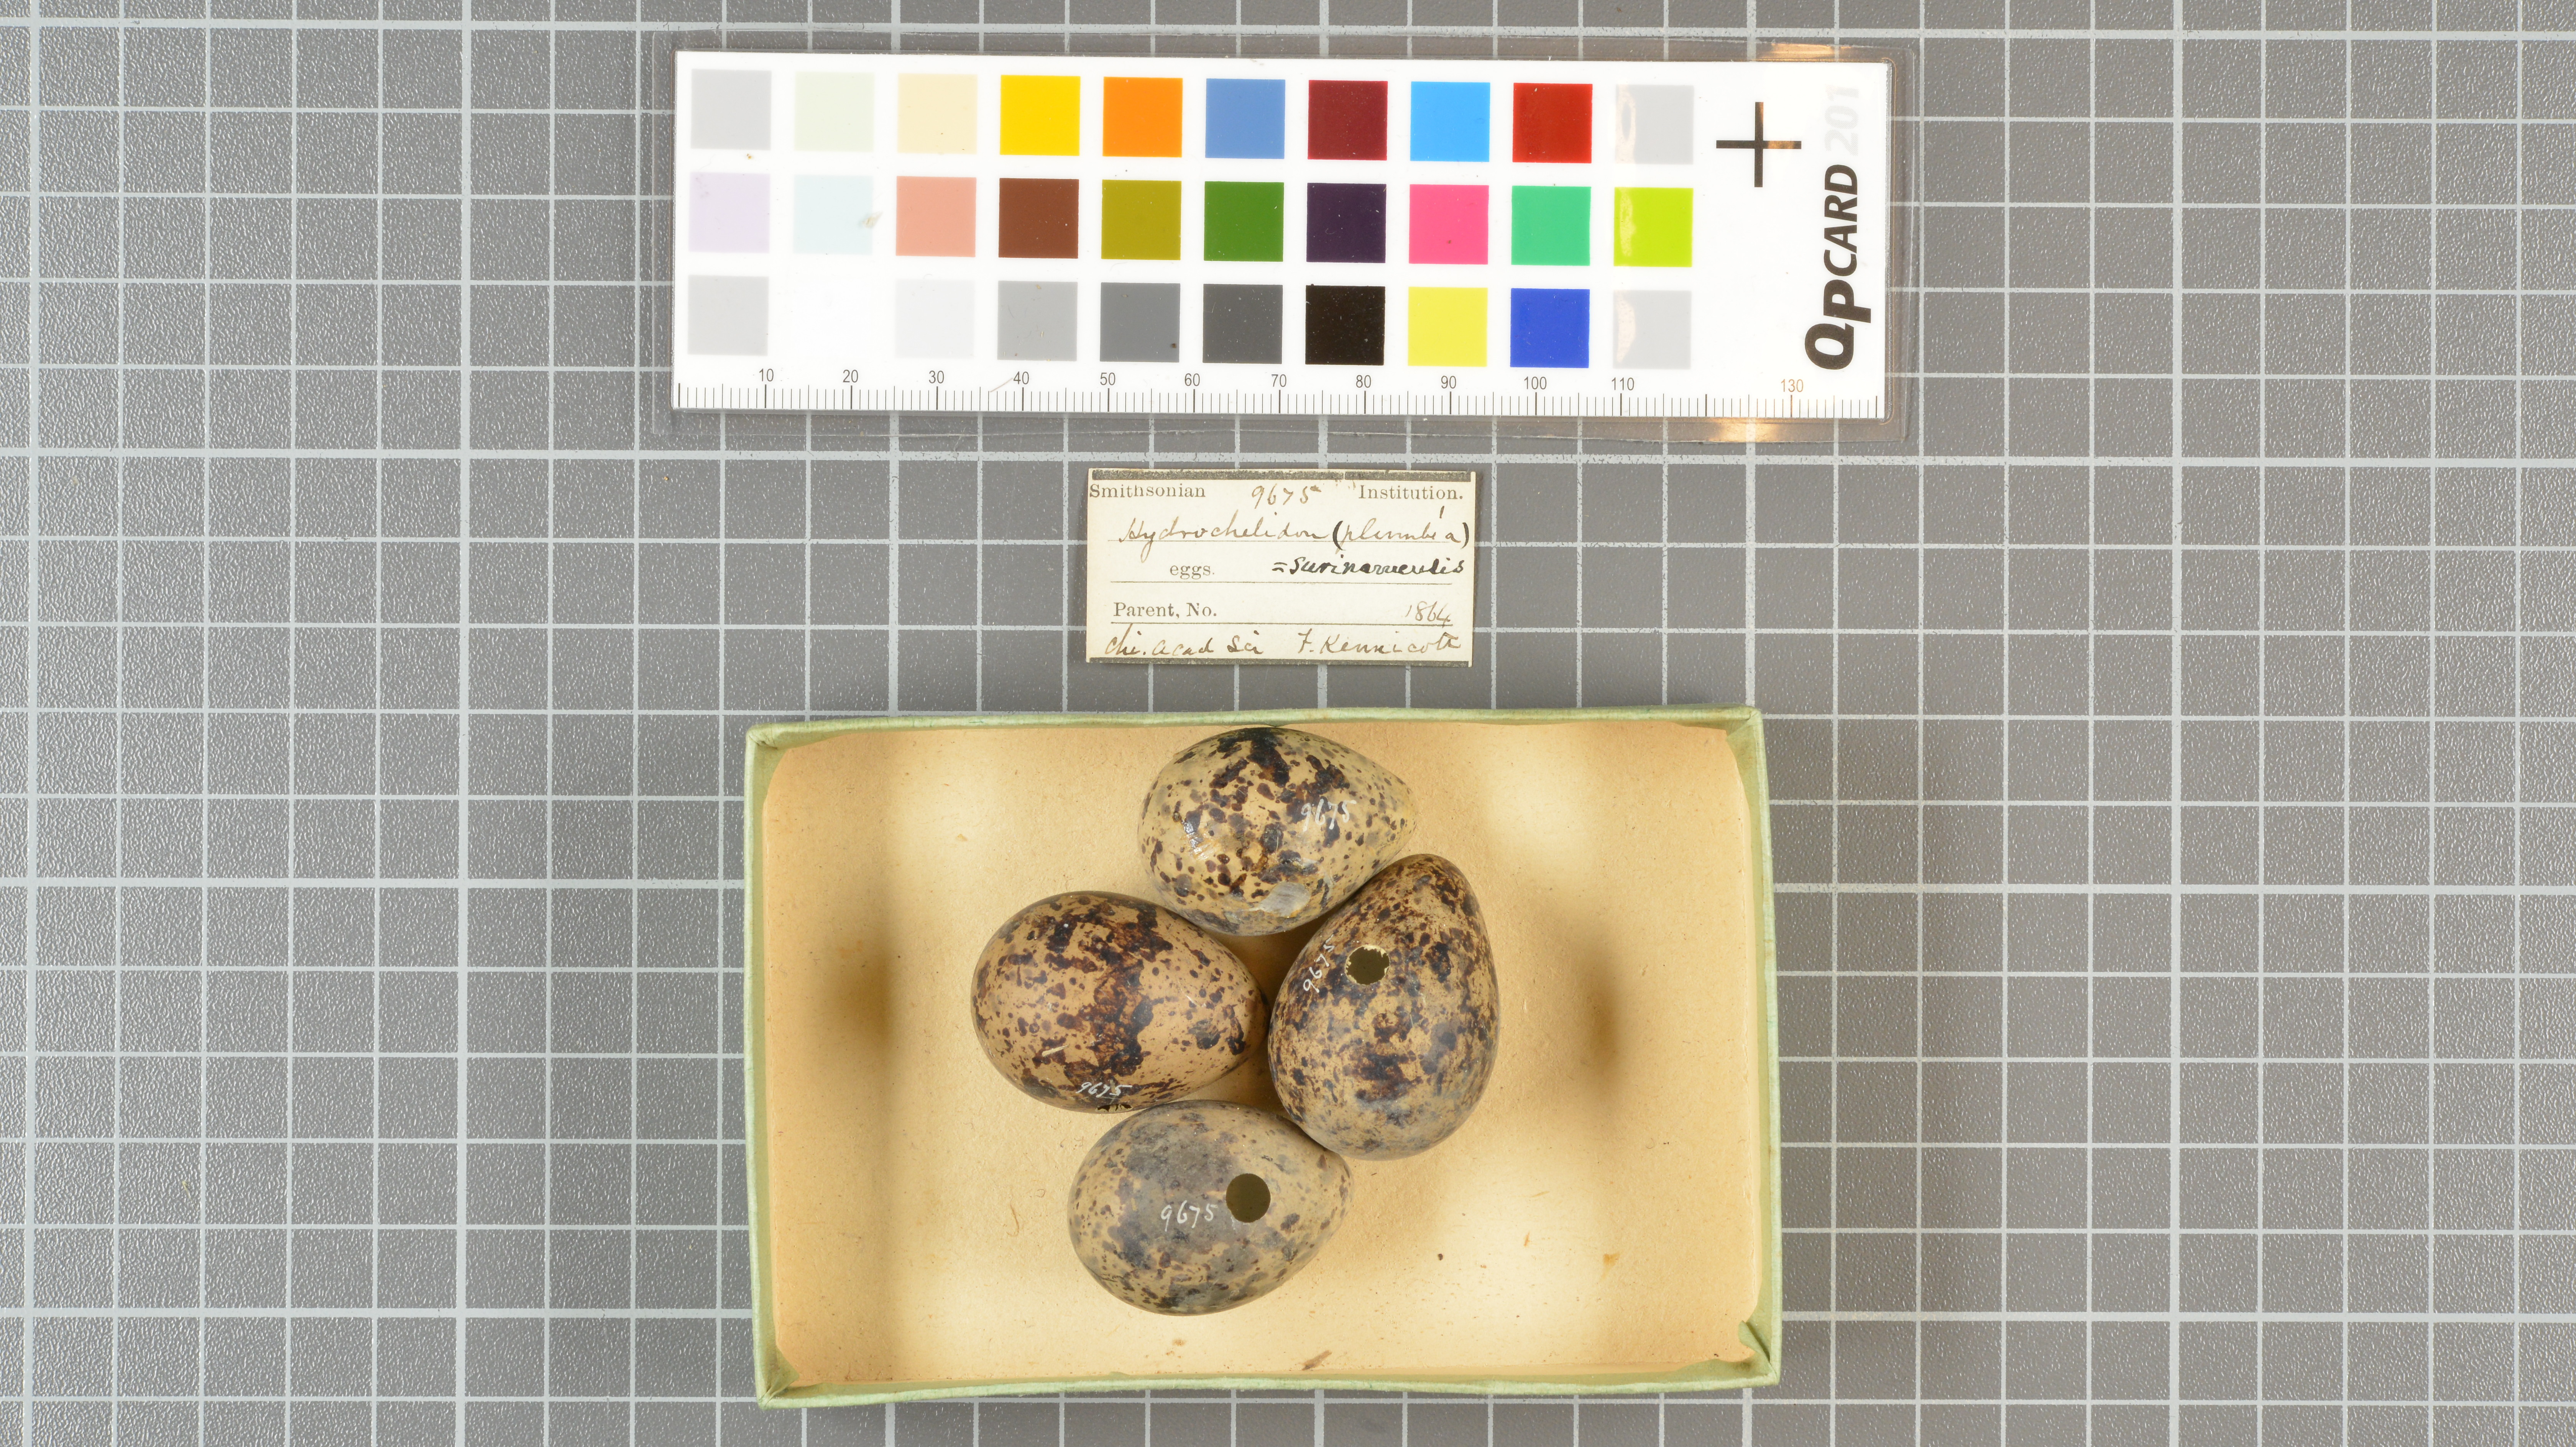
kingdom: Animalia
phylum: Chordata
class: Aves
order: Charadriiformes
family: Laridae
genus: Chlidonias
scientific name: Chlidonias niger
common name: Black tern
